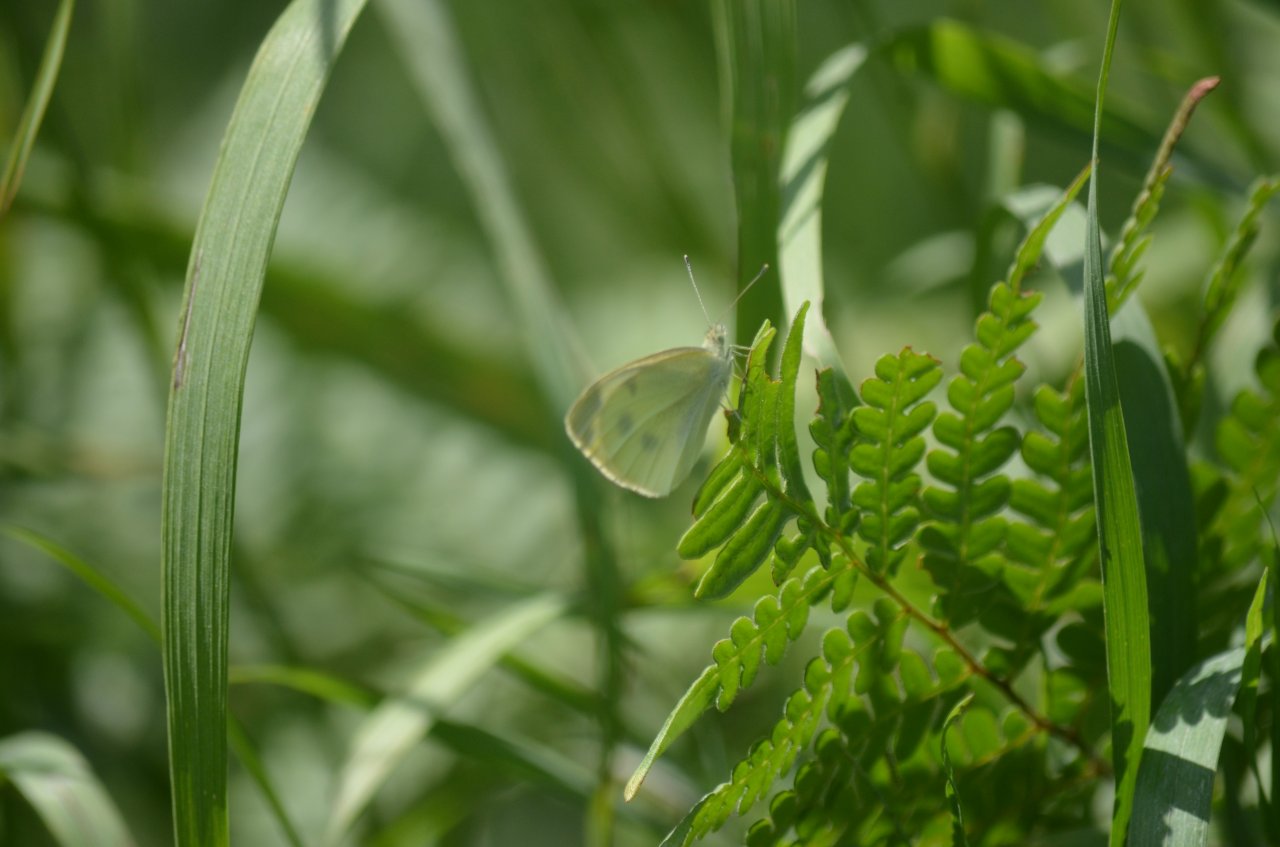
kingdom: Animalia
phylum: Arthropoda
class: Insecta
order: Lepidoptera
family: Pieridae
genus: Pieris
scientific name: Pieris rapae
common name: Cabbage White
